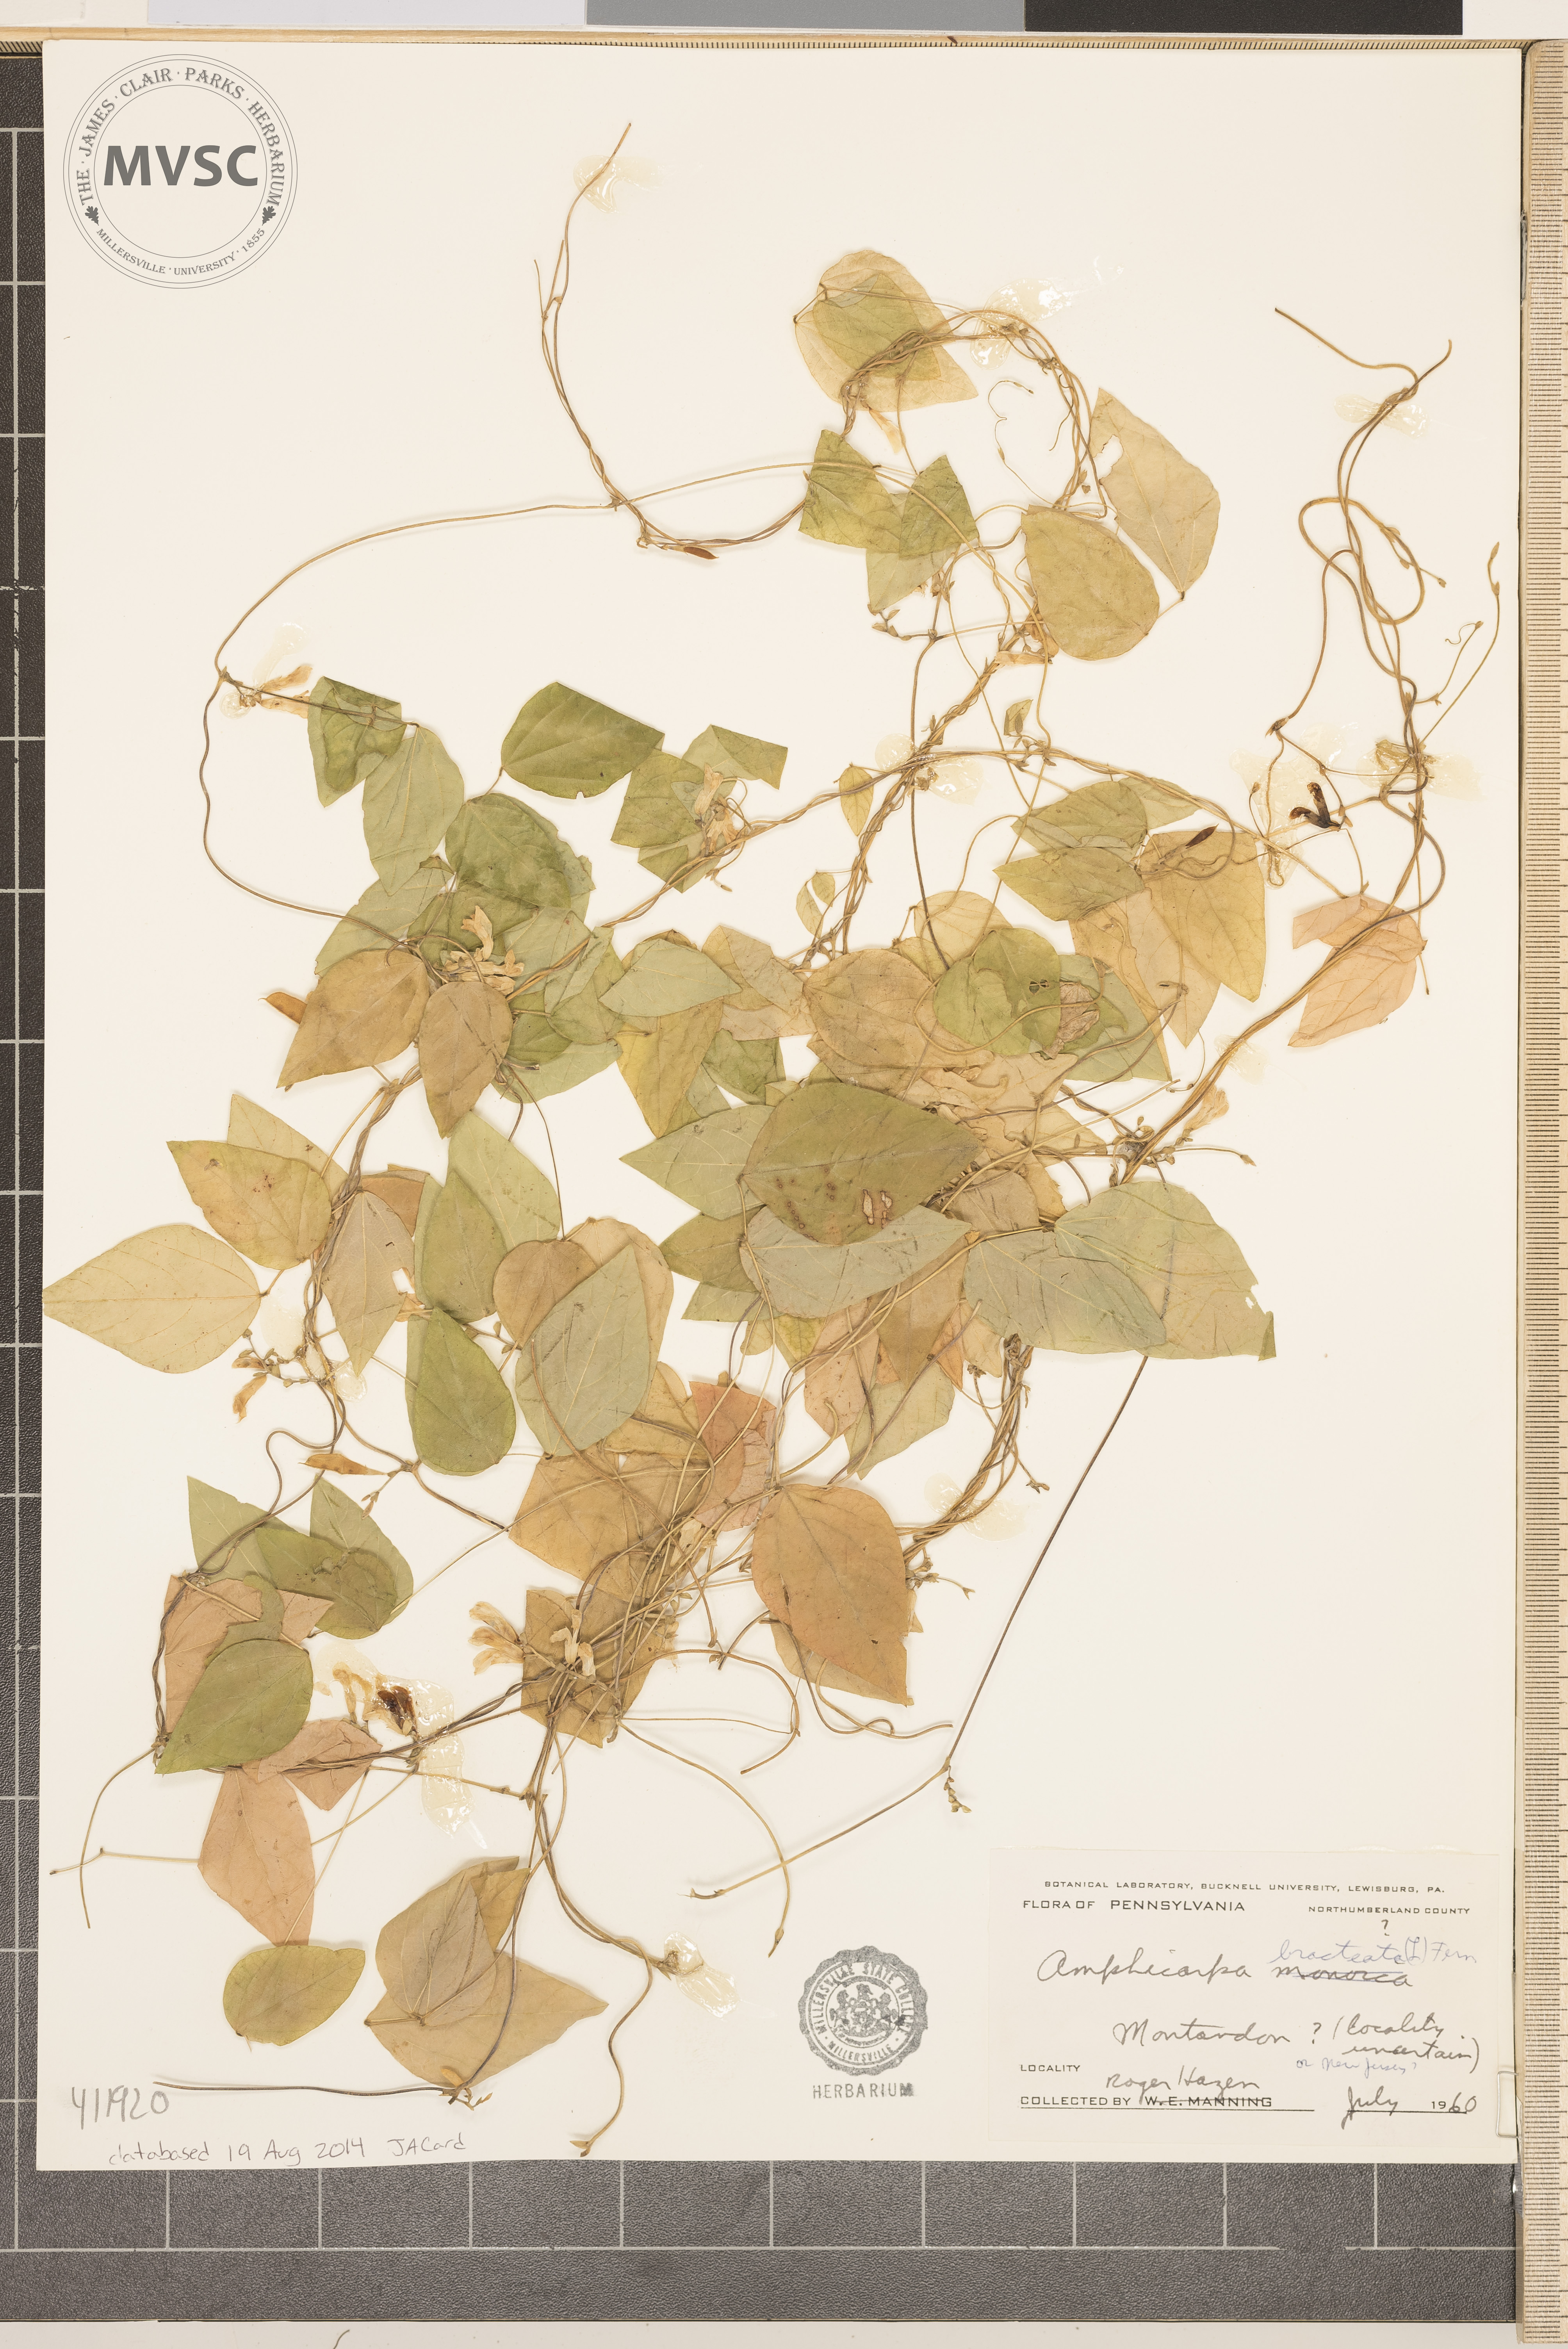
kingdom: Plantae
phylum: Tracheophyta
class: Magnoliopsida
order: Fabales
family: Fabaceae
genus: Amphicarpaea
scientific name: Amphicarpaea bracteata
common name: American hog peanut
